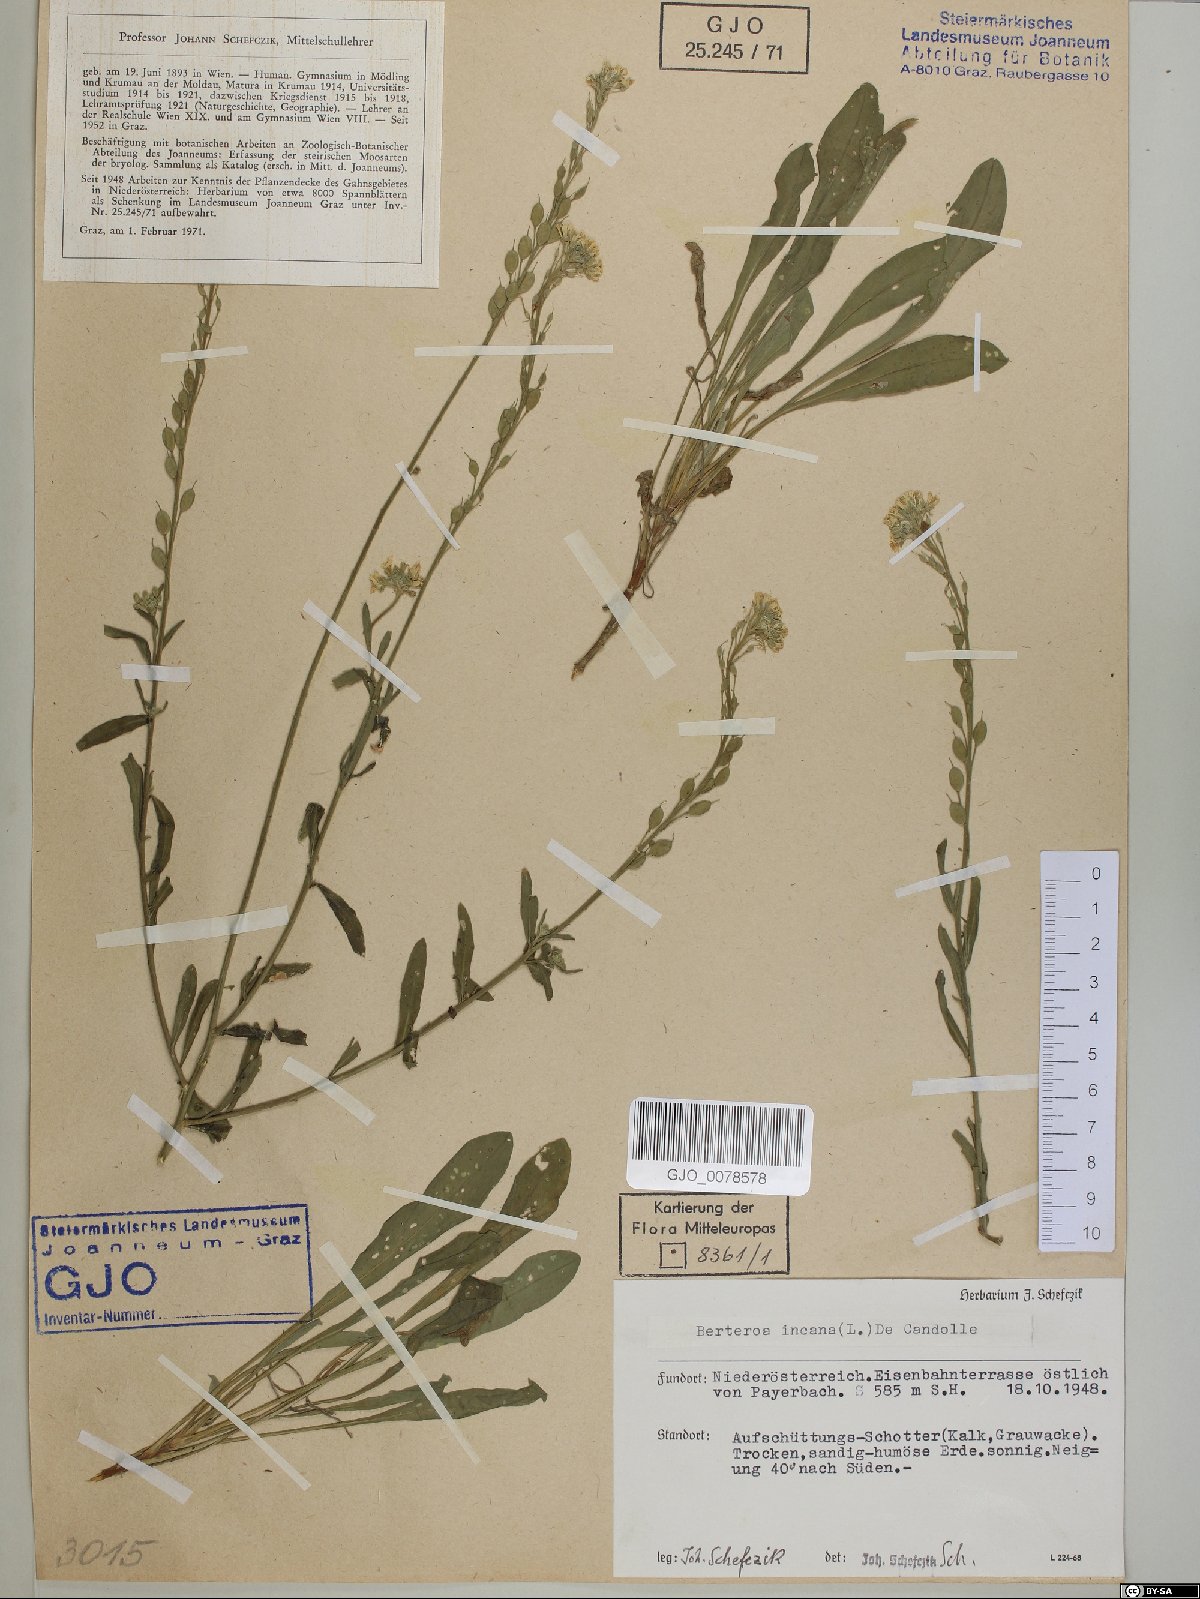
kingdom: Plantae
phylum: Tracheophyta
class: Magnoliopsida
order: Brassicales
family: Brassicaceae
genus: Berteroa
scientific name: Berteroa incana
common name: Hoary alison
